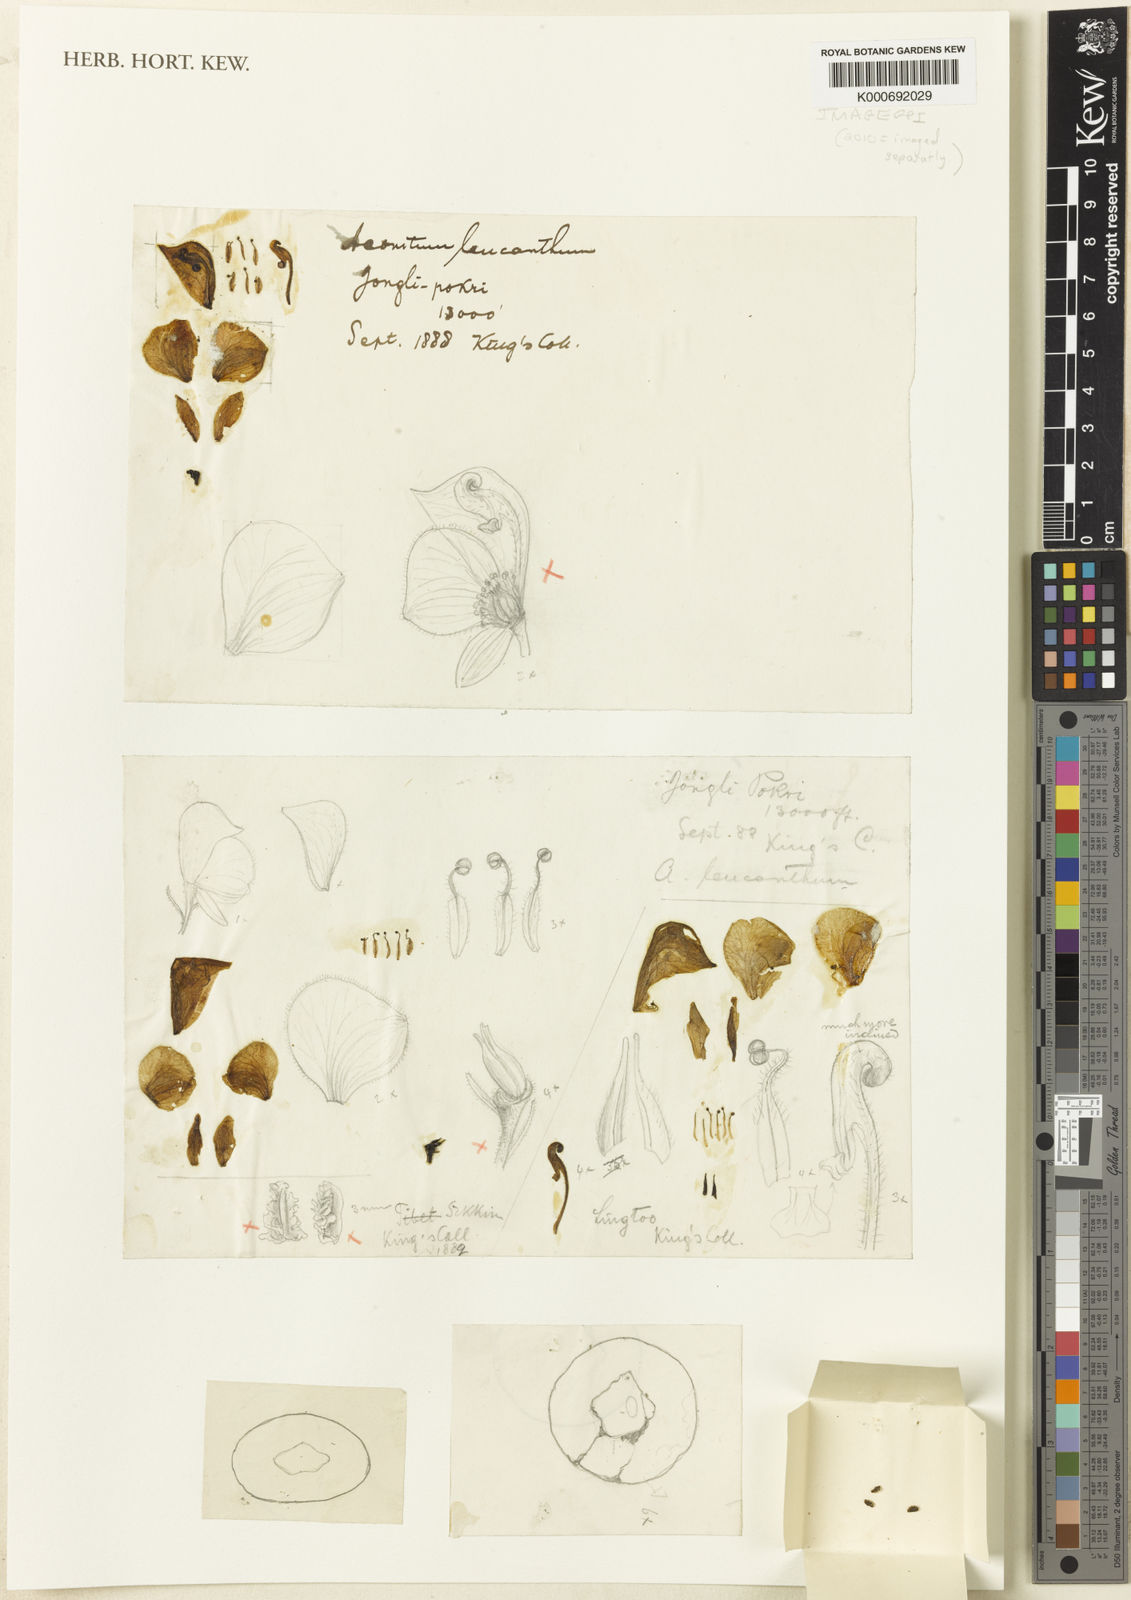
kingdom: Plantae
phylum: Tracheophyta
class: Magnoliopsida
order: Ranunculales
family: Ranunculaceae
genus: Aconitum
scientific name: Aconitum
